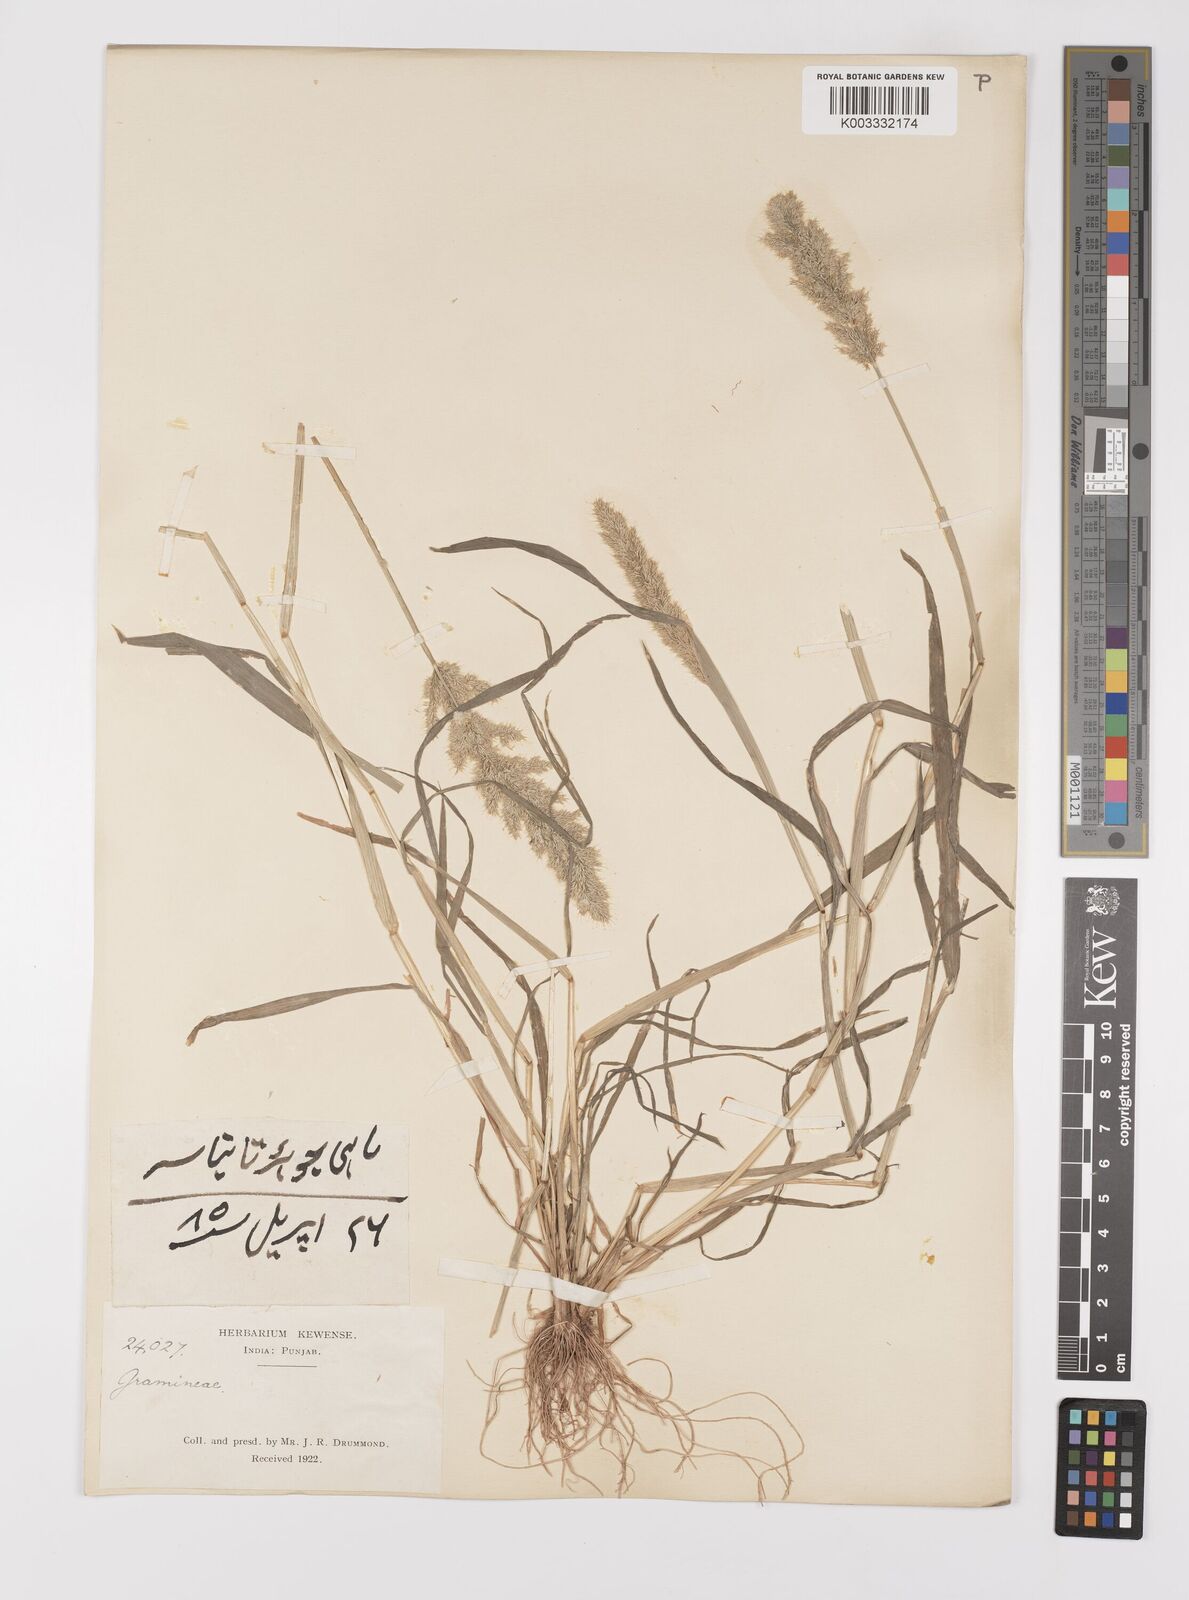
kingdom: Plantae
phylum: Tracheophyta
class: Liliopsida
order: Poales
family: Poaceae
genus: Polypogon
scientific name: Polypogon fugax
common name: Asia minor bluegrass
